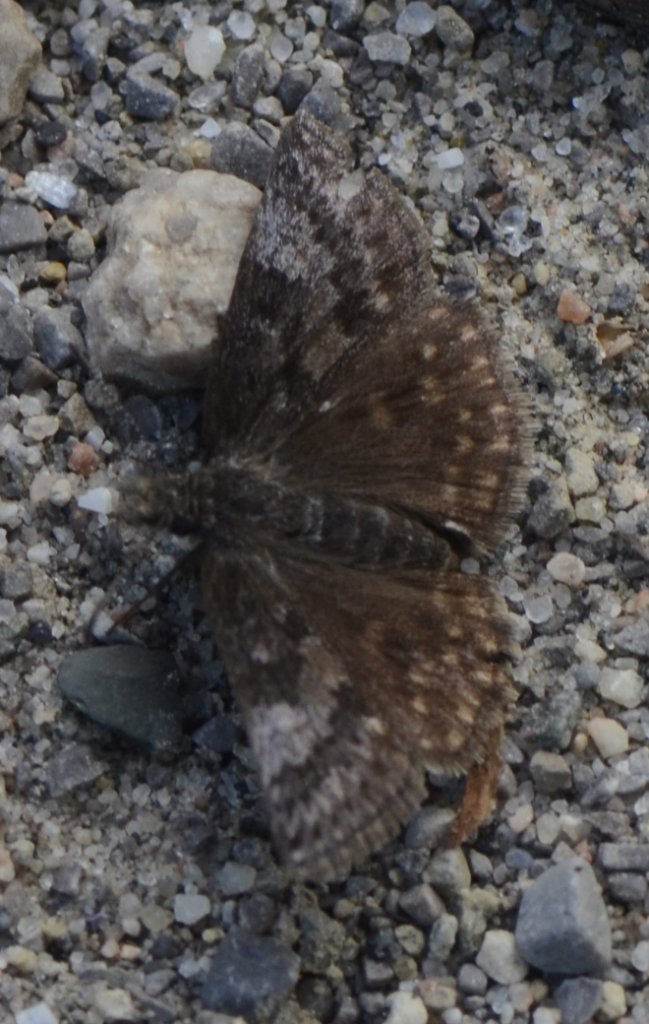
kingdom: Animalia
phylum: Arthropoda
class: Insecta
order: Lepidoptera
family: Hesperiidae
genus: Erynnis
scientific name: Erynnis icelus
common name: Dreamy Duskywing
